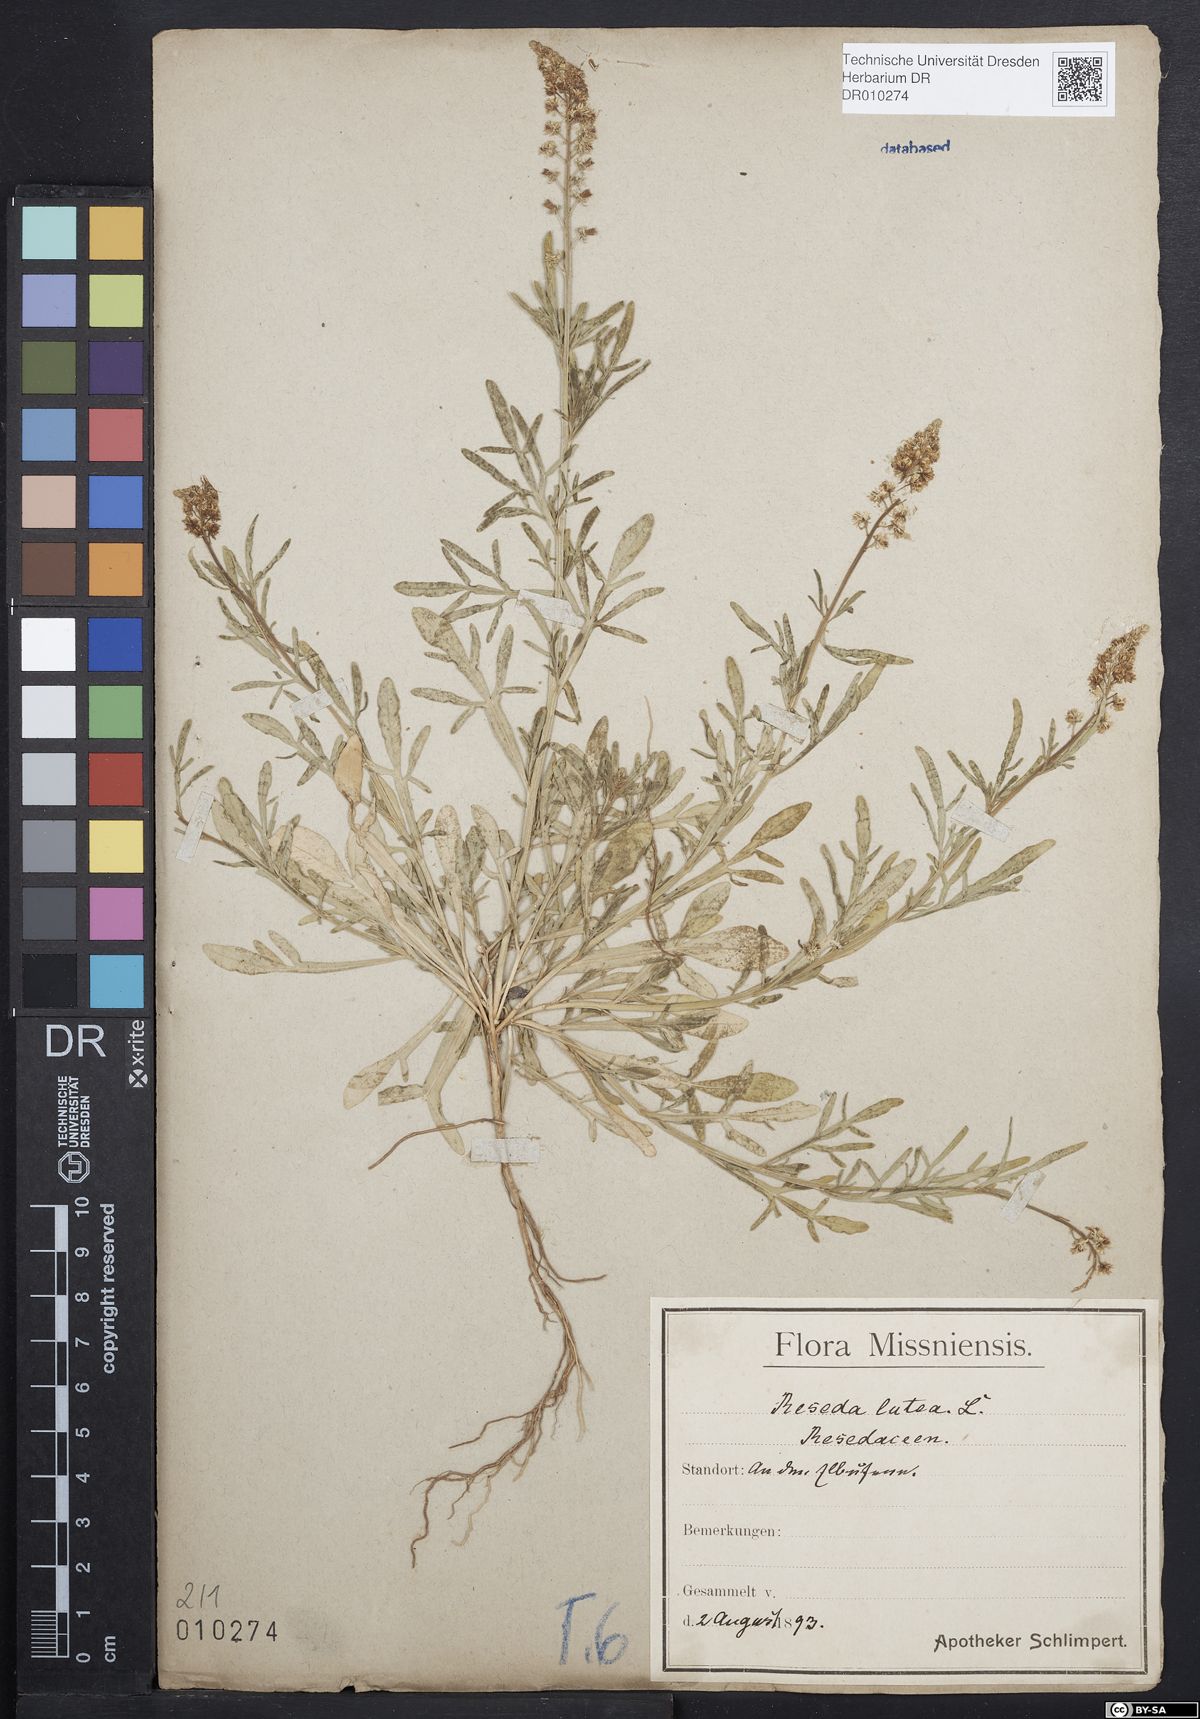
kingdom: Plantae
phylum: Tracheophyta
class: Magnoliopsida
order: Brassicales
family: Resedaceae
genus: Reseda
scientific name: Reseda lutea
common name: Wild mignonette
